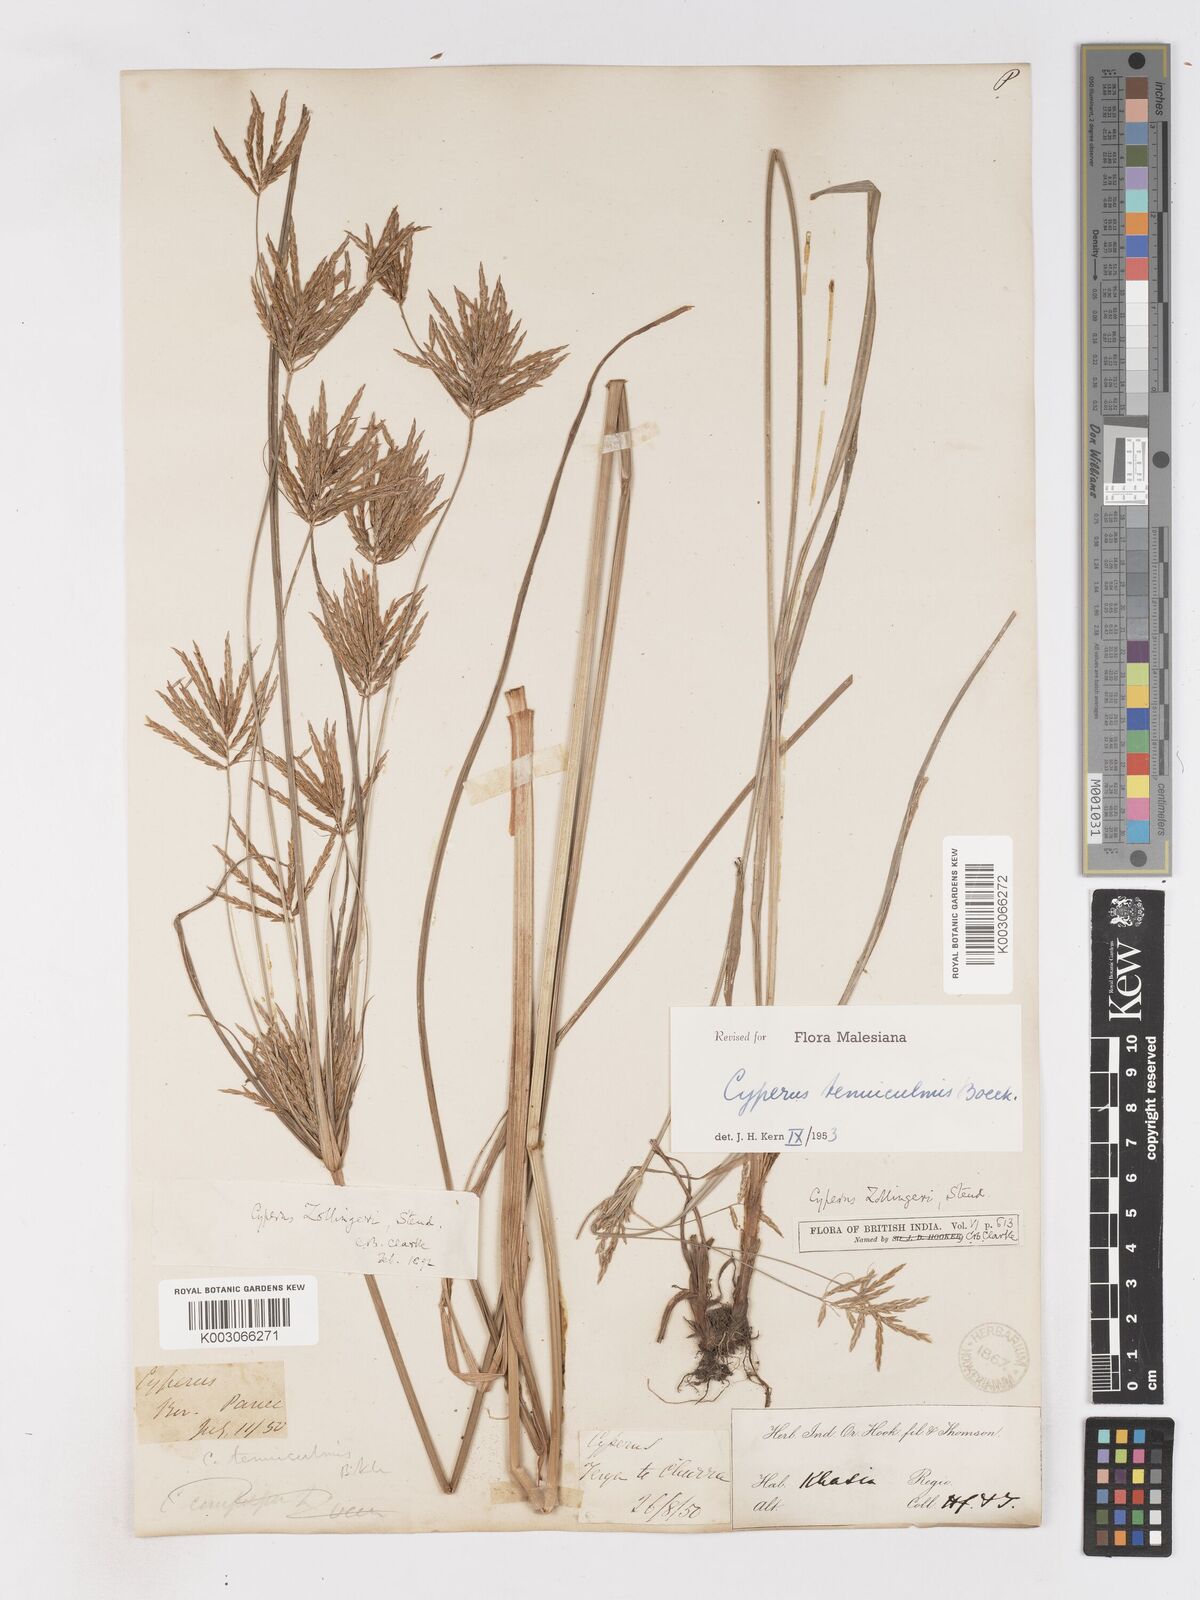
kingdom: Plantae
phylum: Tracheophyta
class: Liliopsida
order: Poales
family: Cyperaceae
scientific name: Cyperaceae
